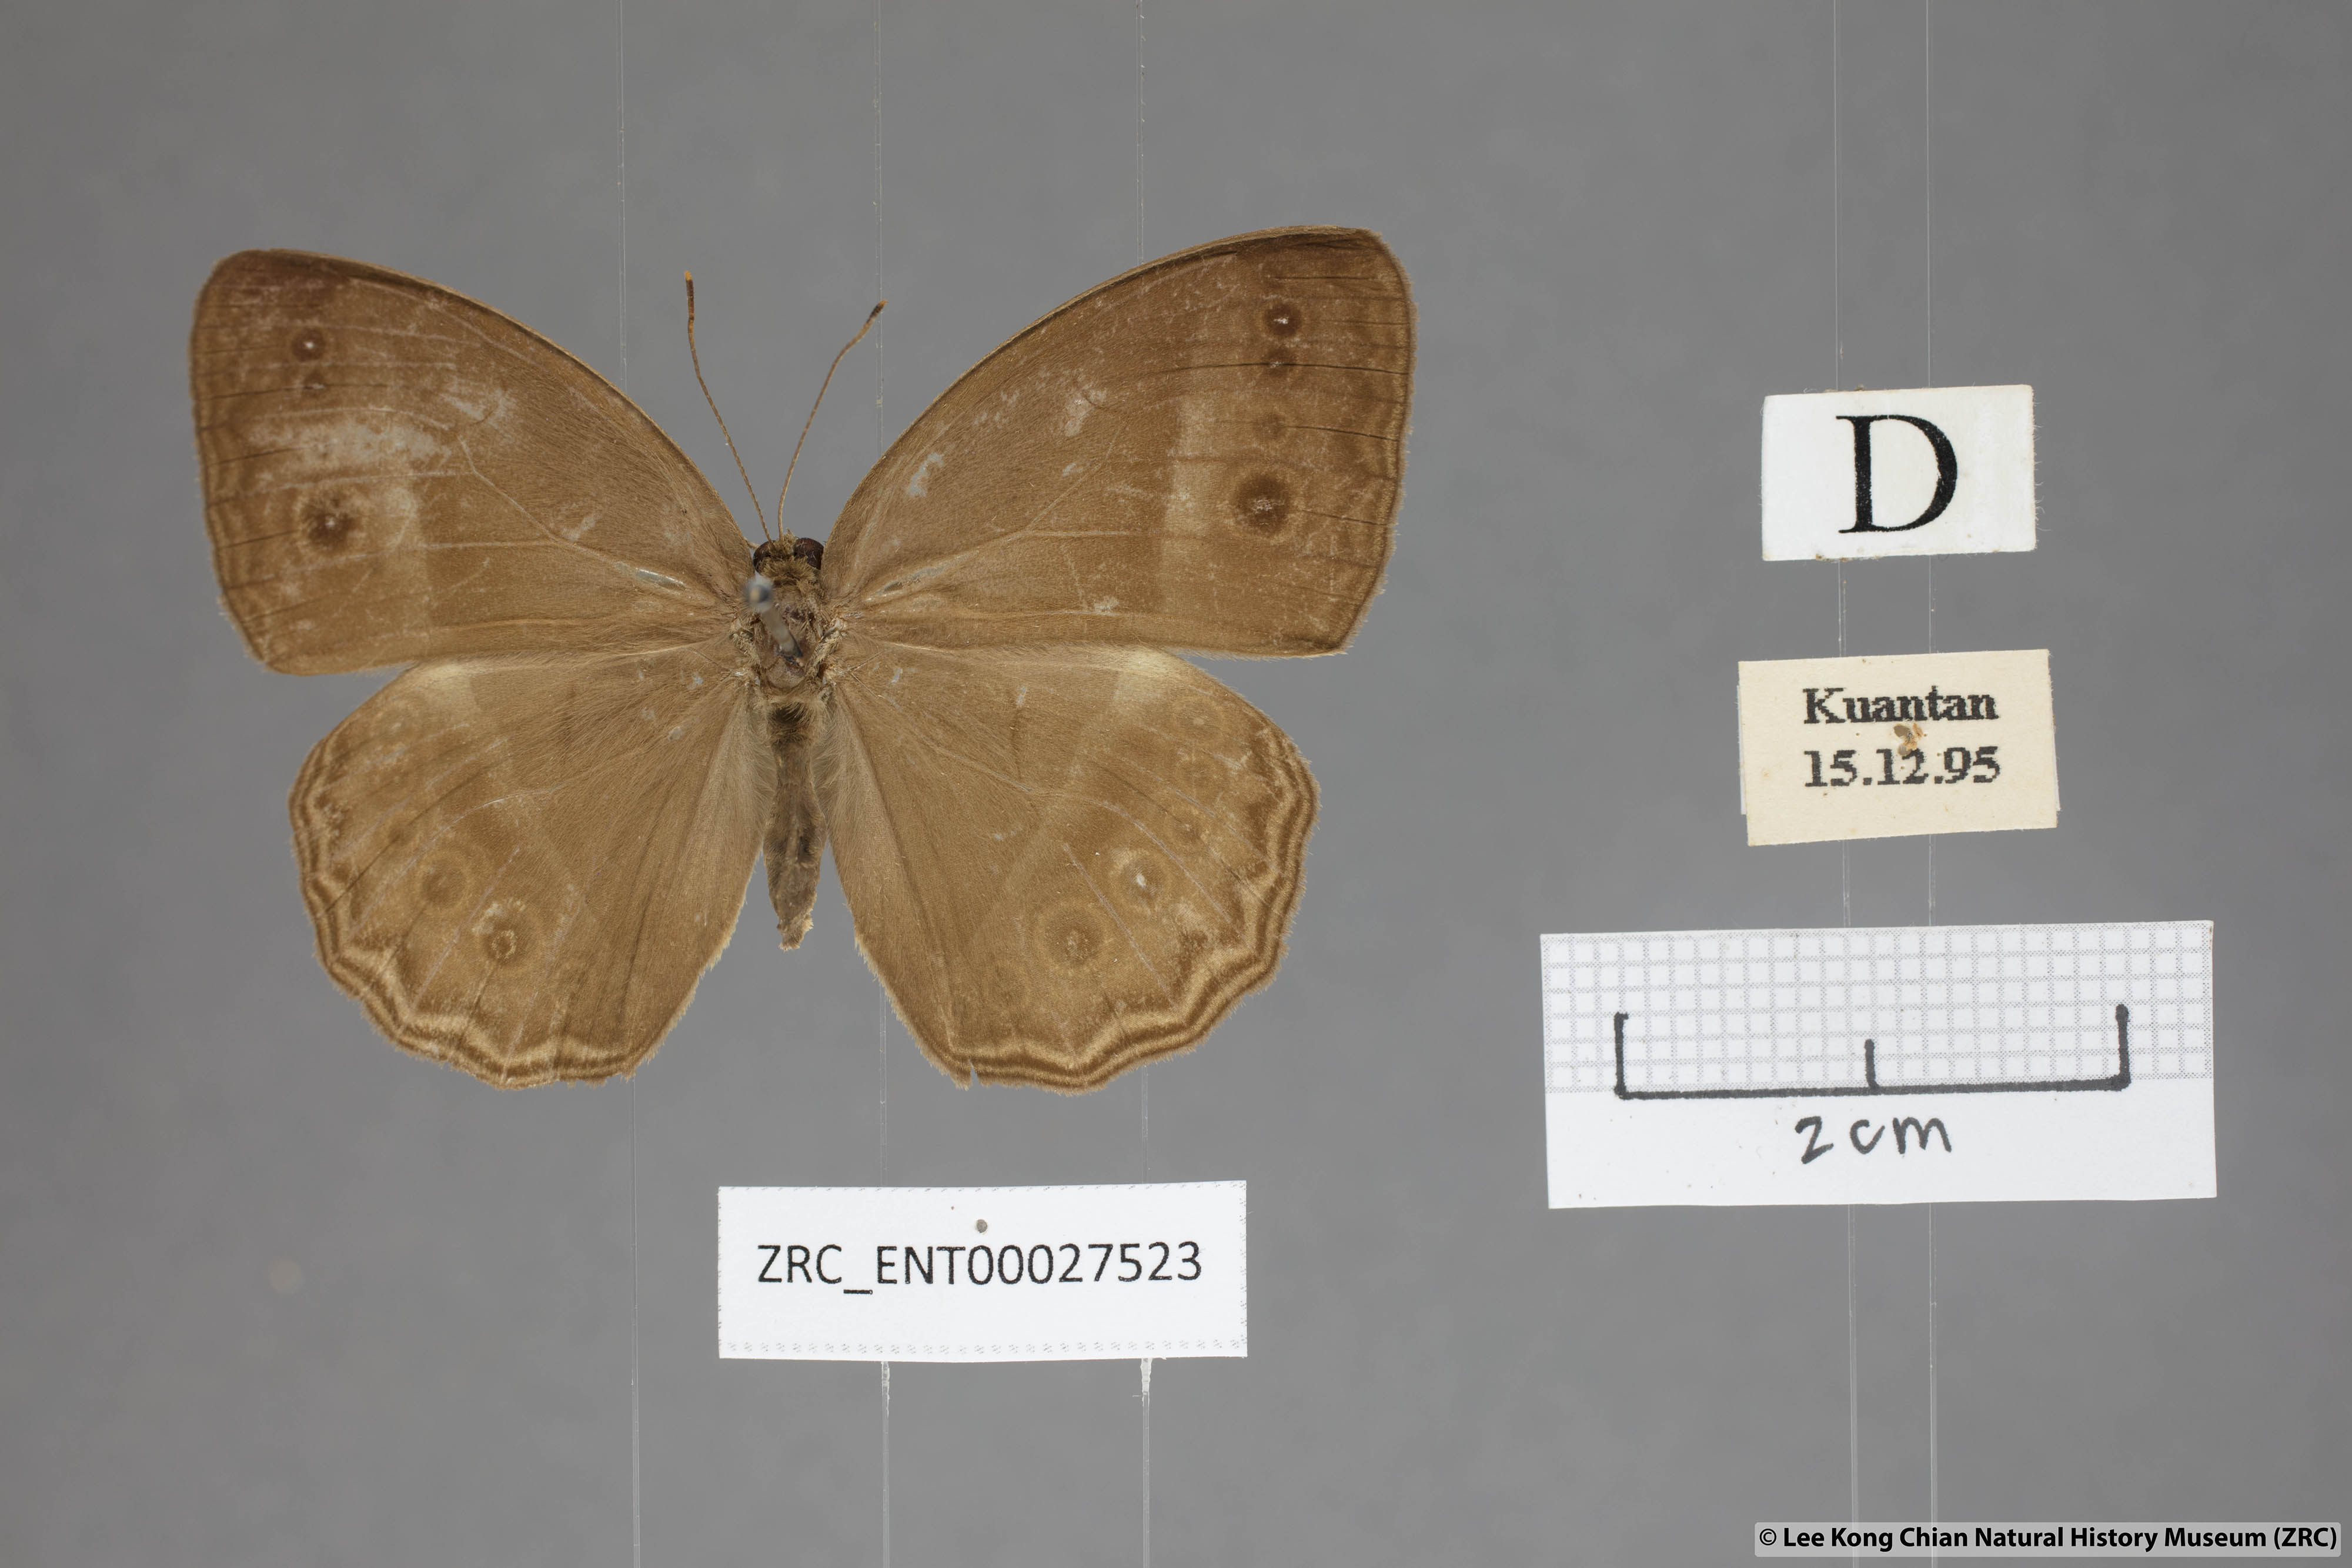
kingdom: Animalia
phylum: Arthropoda
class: Insecta
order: Lepidoptera
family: Nymphalidae
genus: Mycalesis
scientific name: Mycalesis orseis
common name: Purple bushbrown
